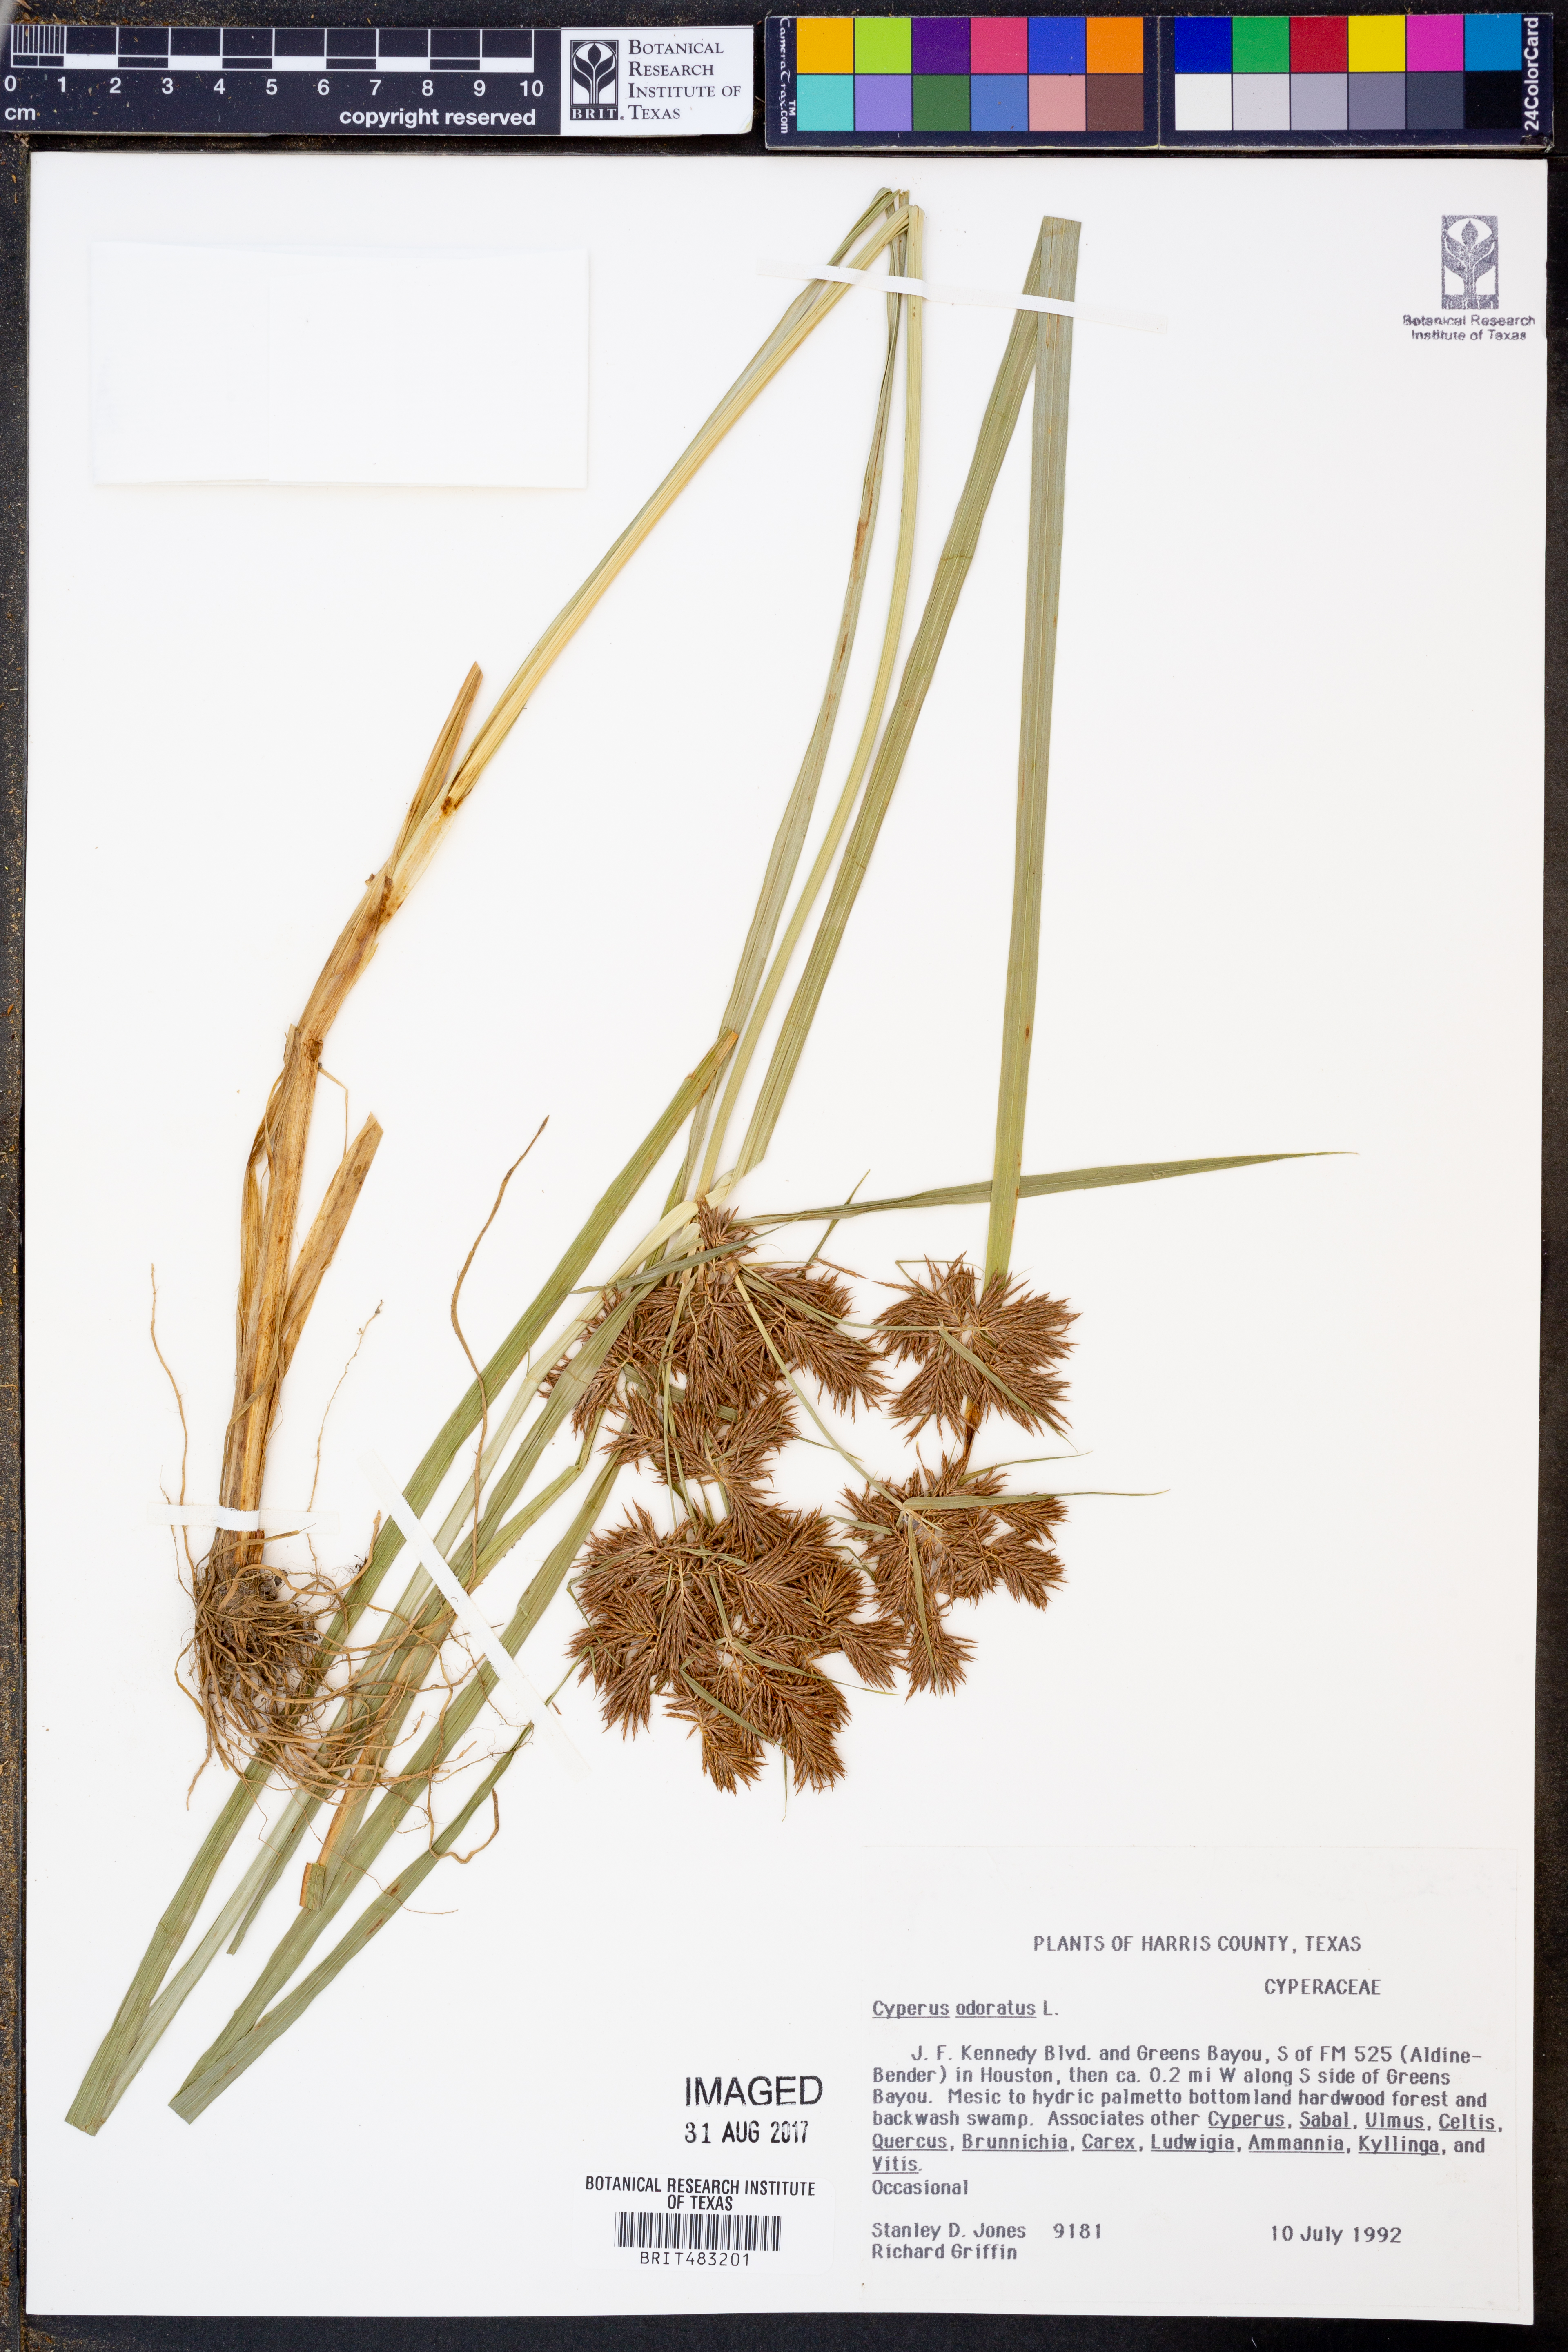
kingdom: Plantae
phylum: Tracheophyta
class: Liliopsida
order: Poales
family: Cyperaceae
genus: Cyperus
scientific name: Cyperus odoratus
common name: Fragrant flatsedge
